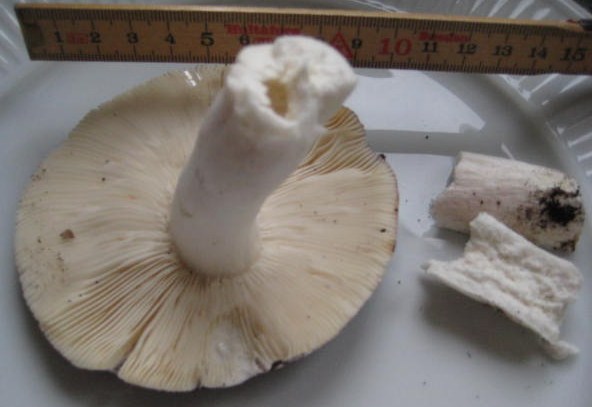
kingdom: Fungi
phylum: Basidiomycota
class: Agaricomycetes
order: Russulales
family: Russulaceae
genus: Russula
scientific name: Russula ionochlora
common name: violetgrøn skørhat
